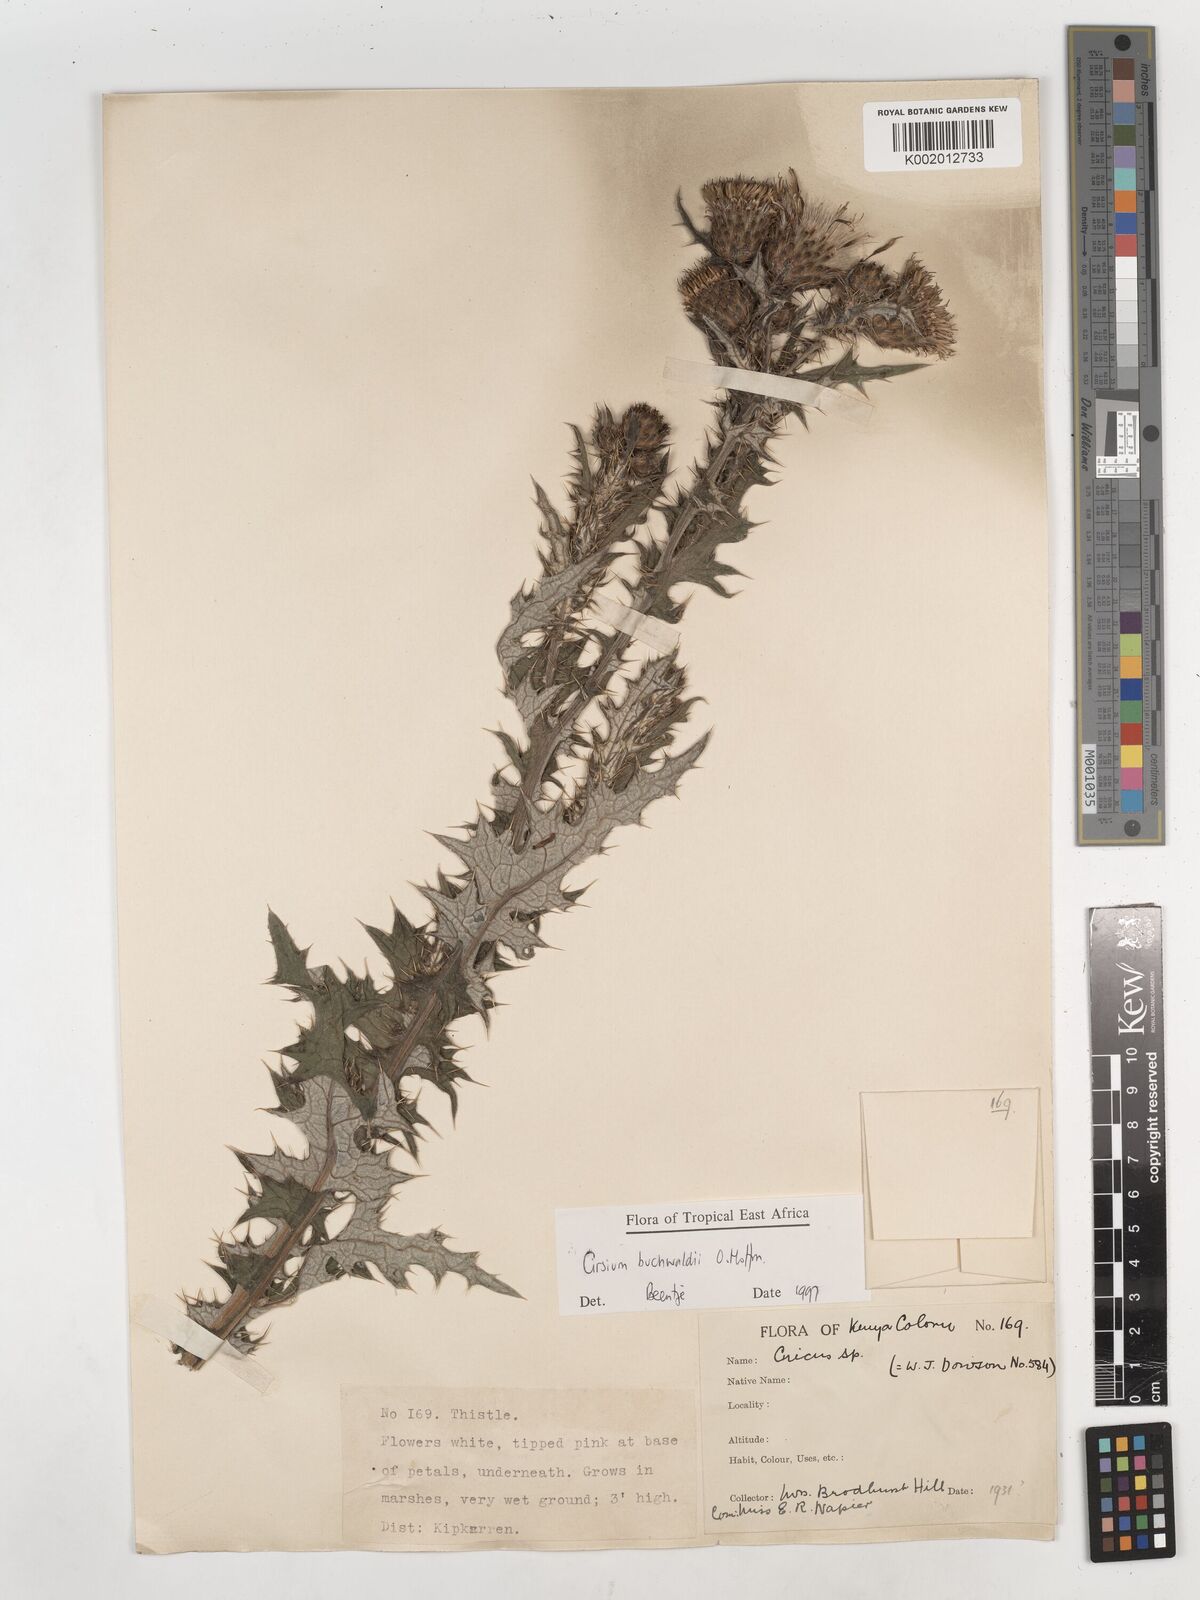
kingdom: Plantae
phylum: Tracheophyta
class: Magnoliopsida
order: Asterales
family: Asteraceae
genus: Cirsium
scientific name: Cirsium buchwaldii
